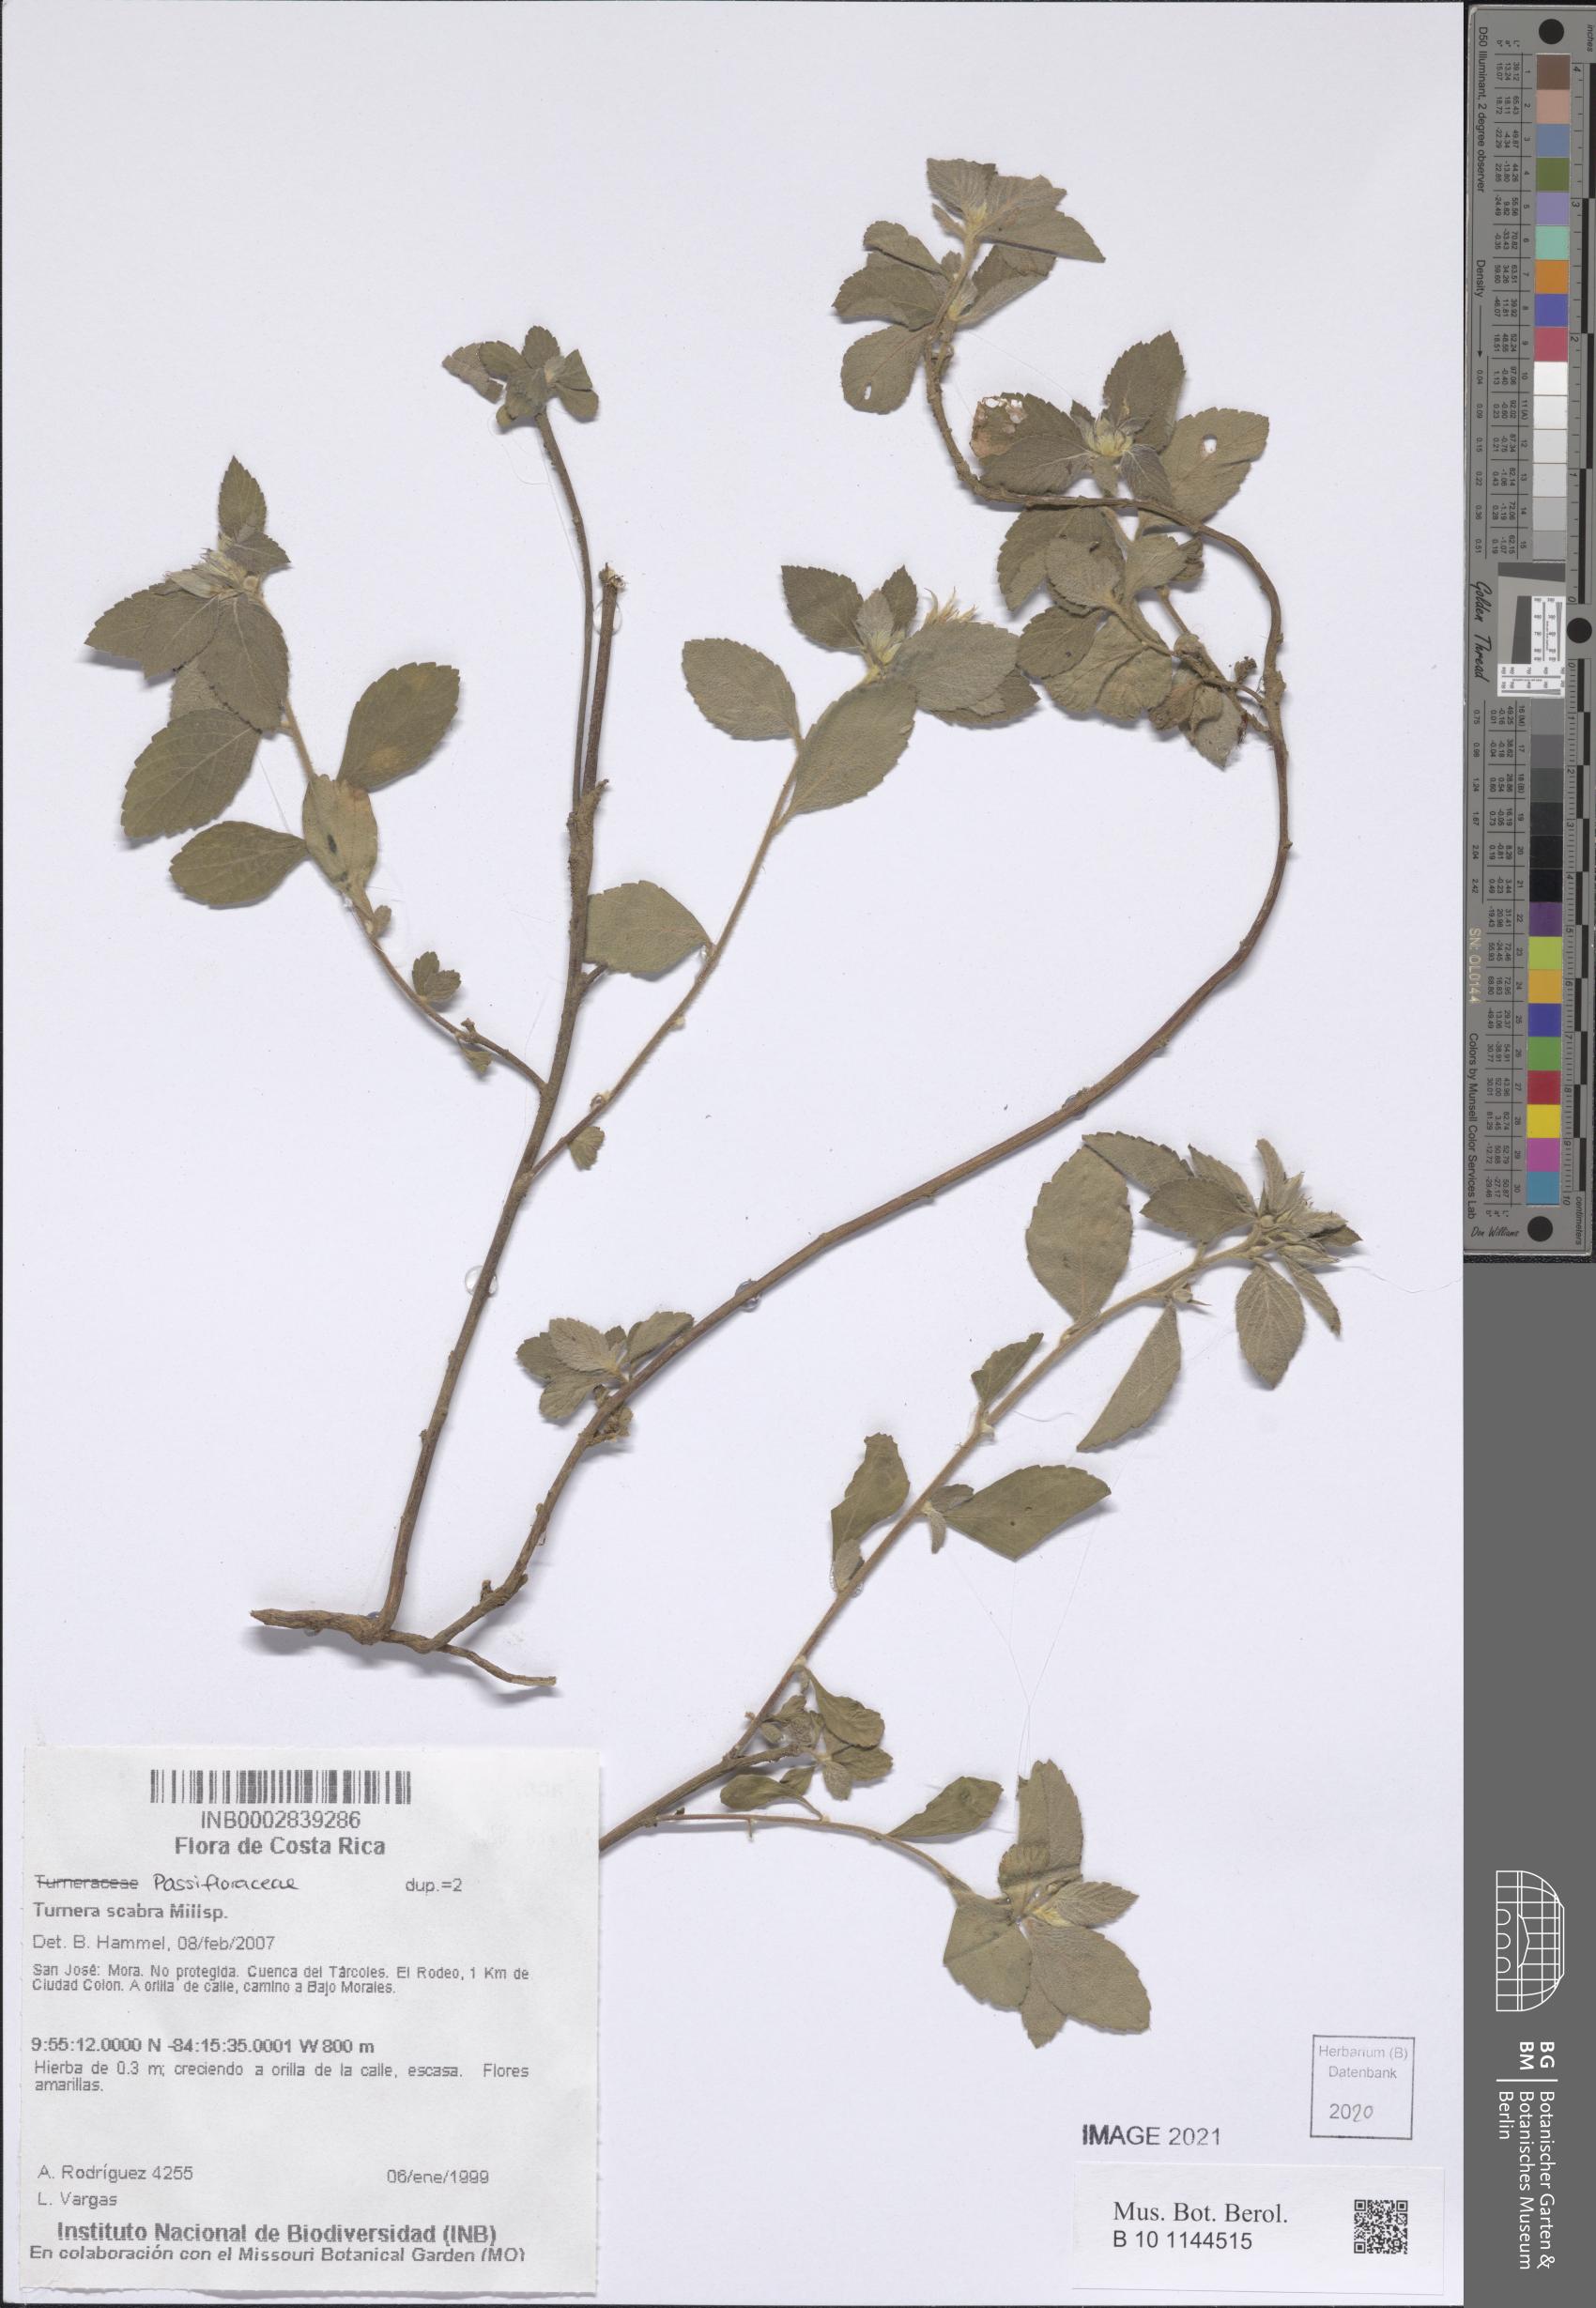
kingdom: Plantae
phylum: Tracheophyta
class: Magnoliopsida
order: Malpighiales
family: Turneraceae
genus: Turnera
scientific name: Turnera scabra
